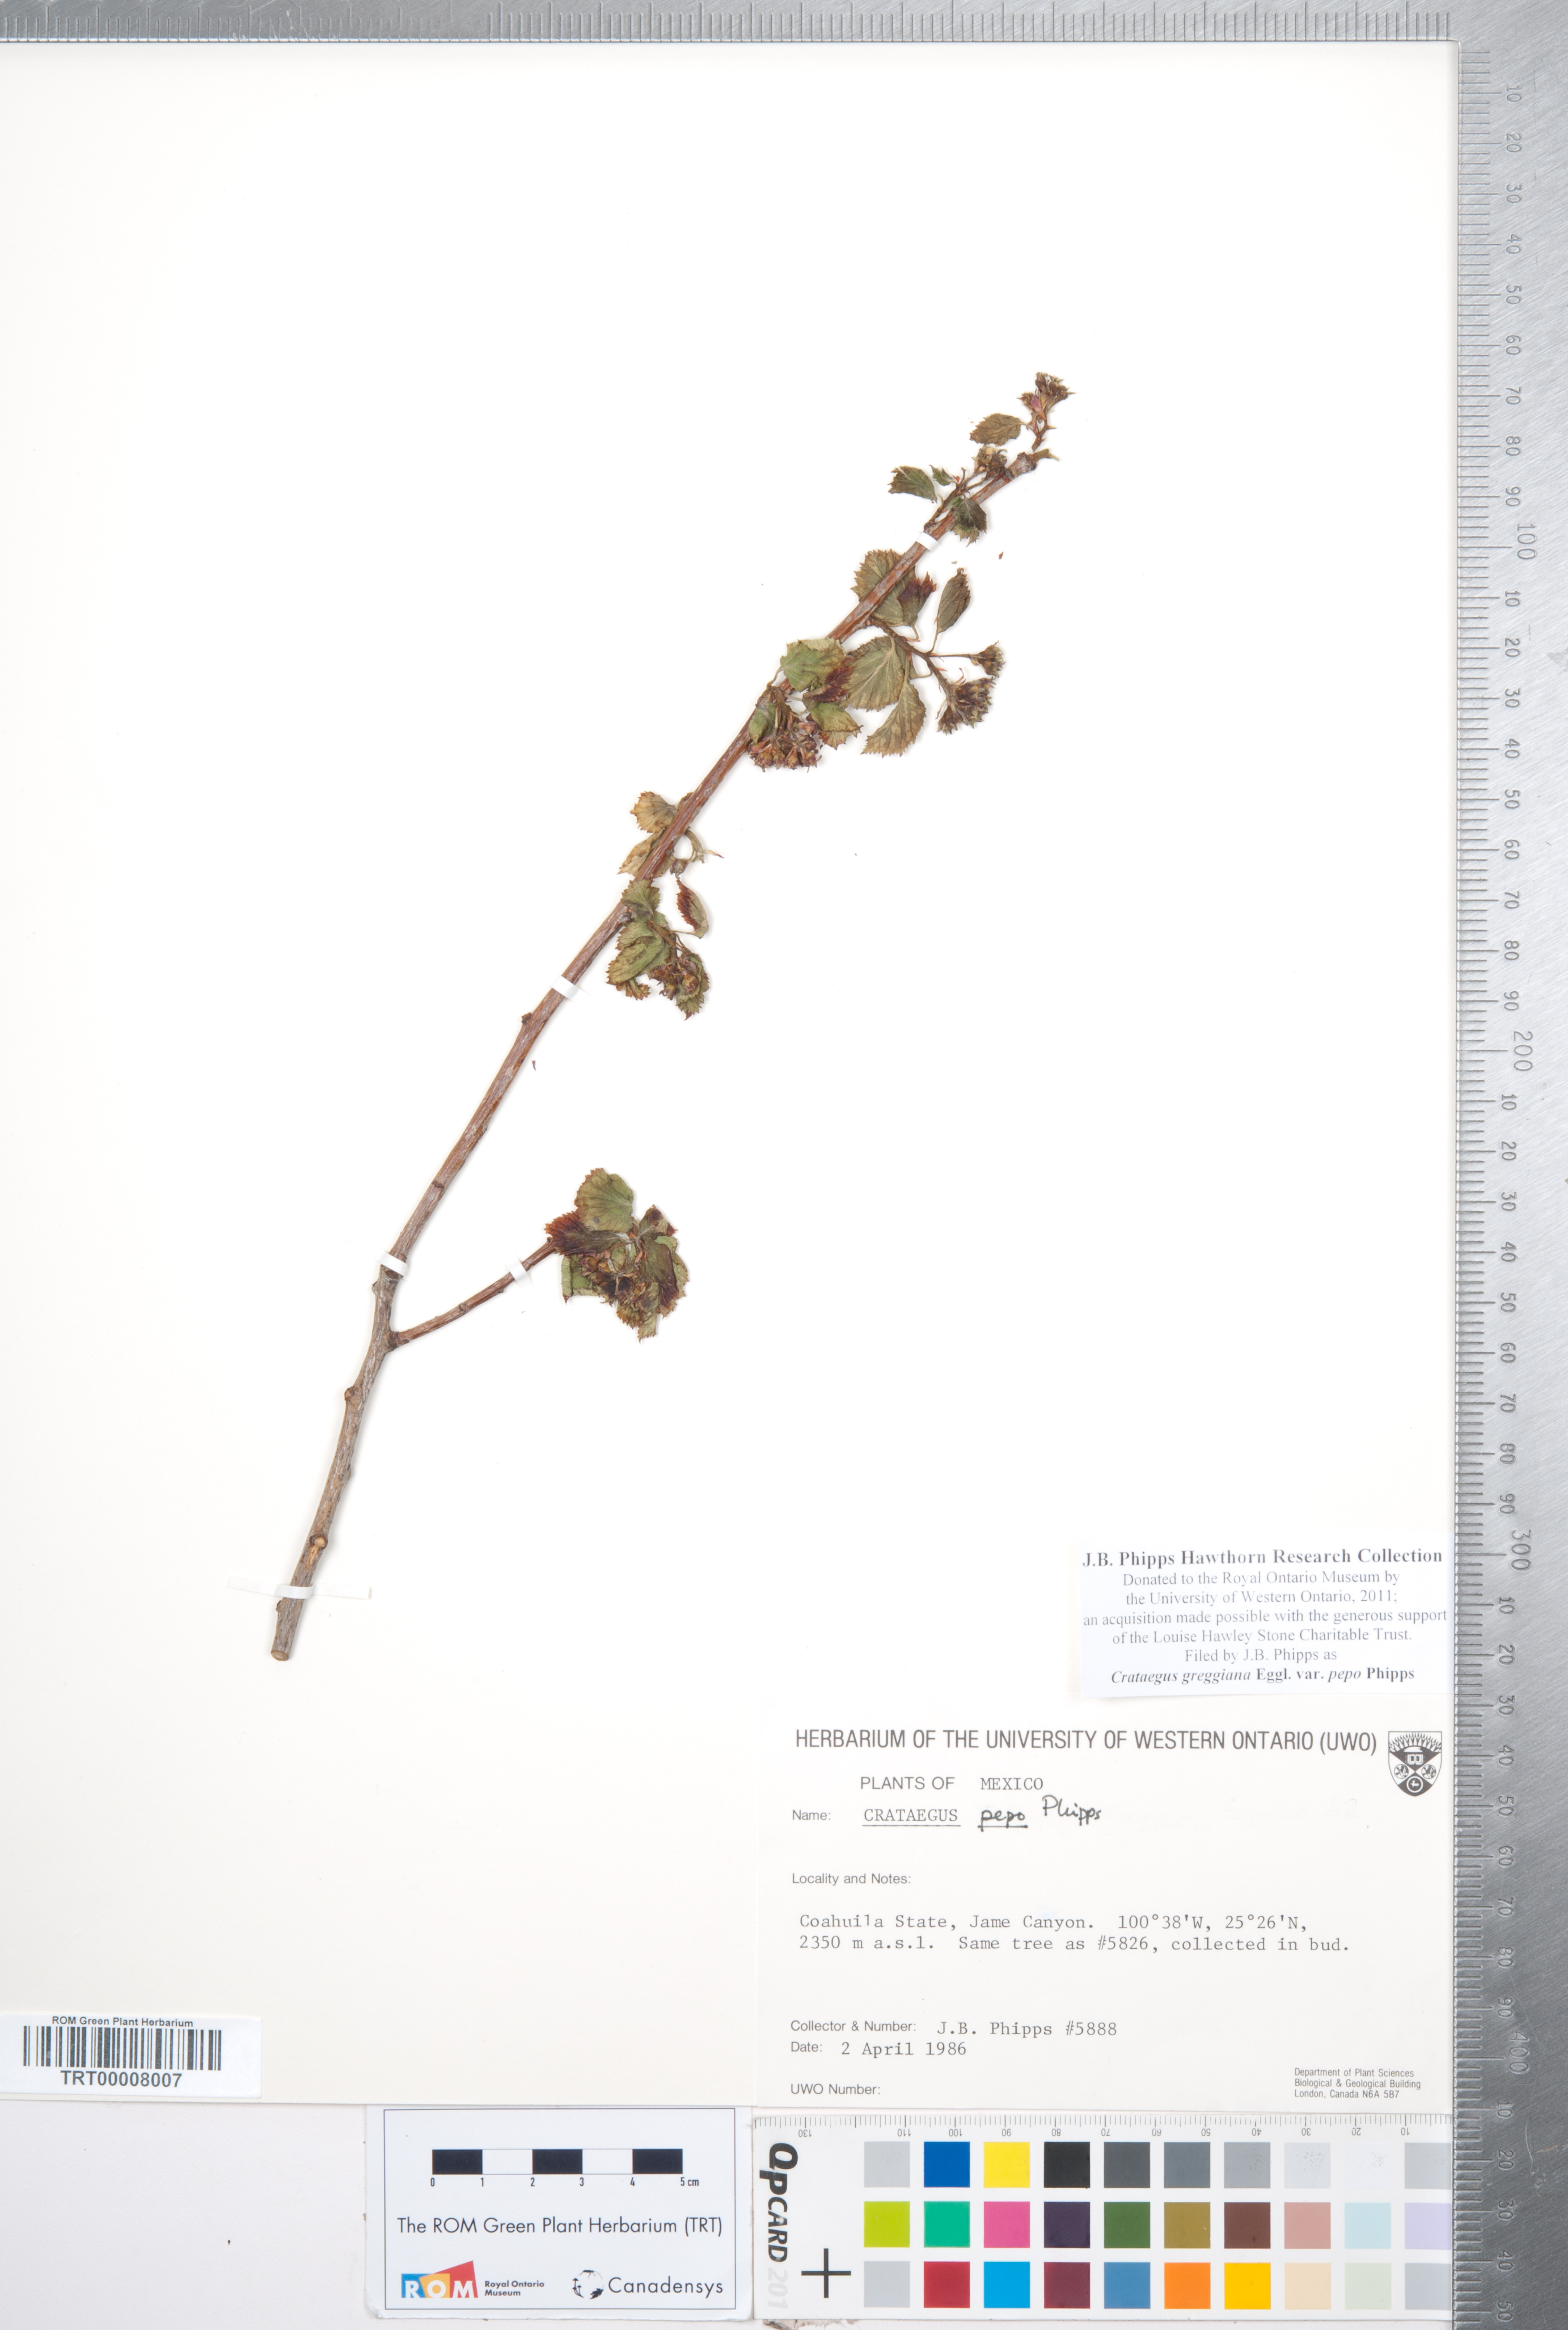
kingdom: Plantae
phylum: Tracheophyta
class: Magnoliopsida
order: Rosales
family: Rosaceae
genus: Crataegus
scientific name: Crataegus greggiana
